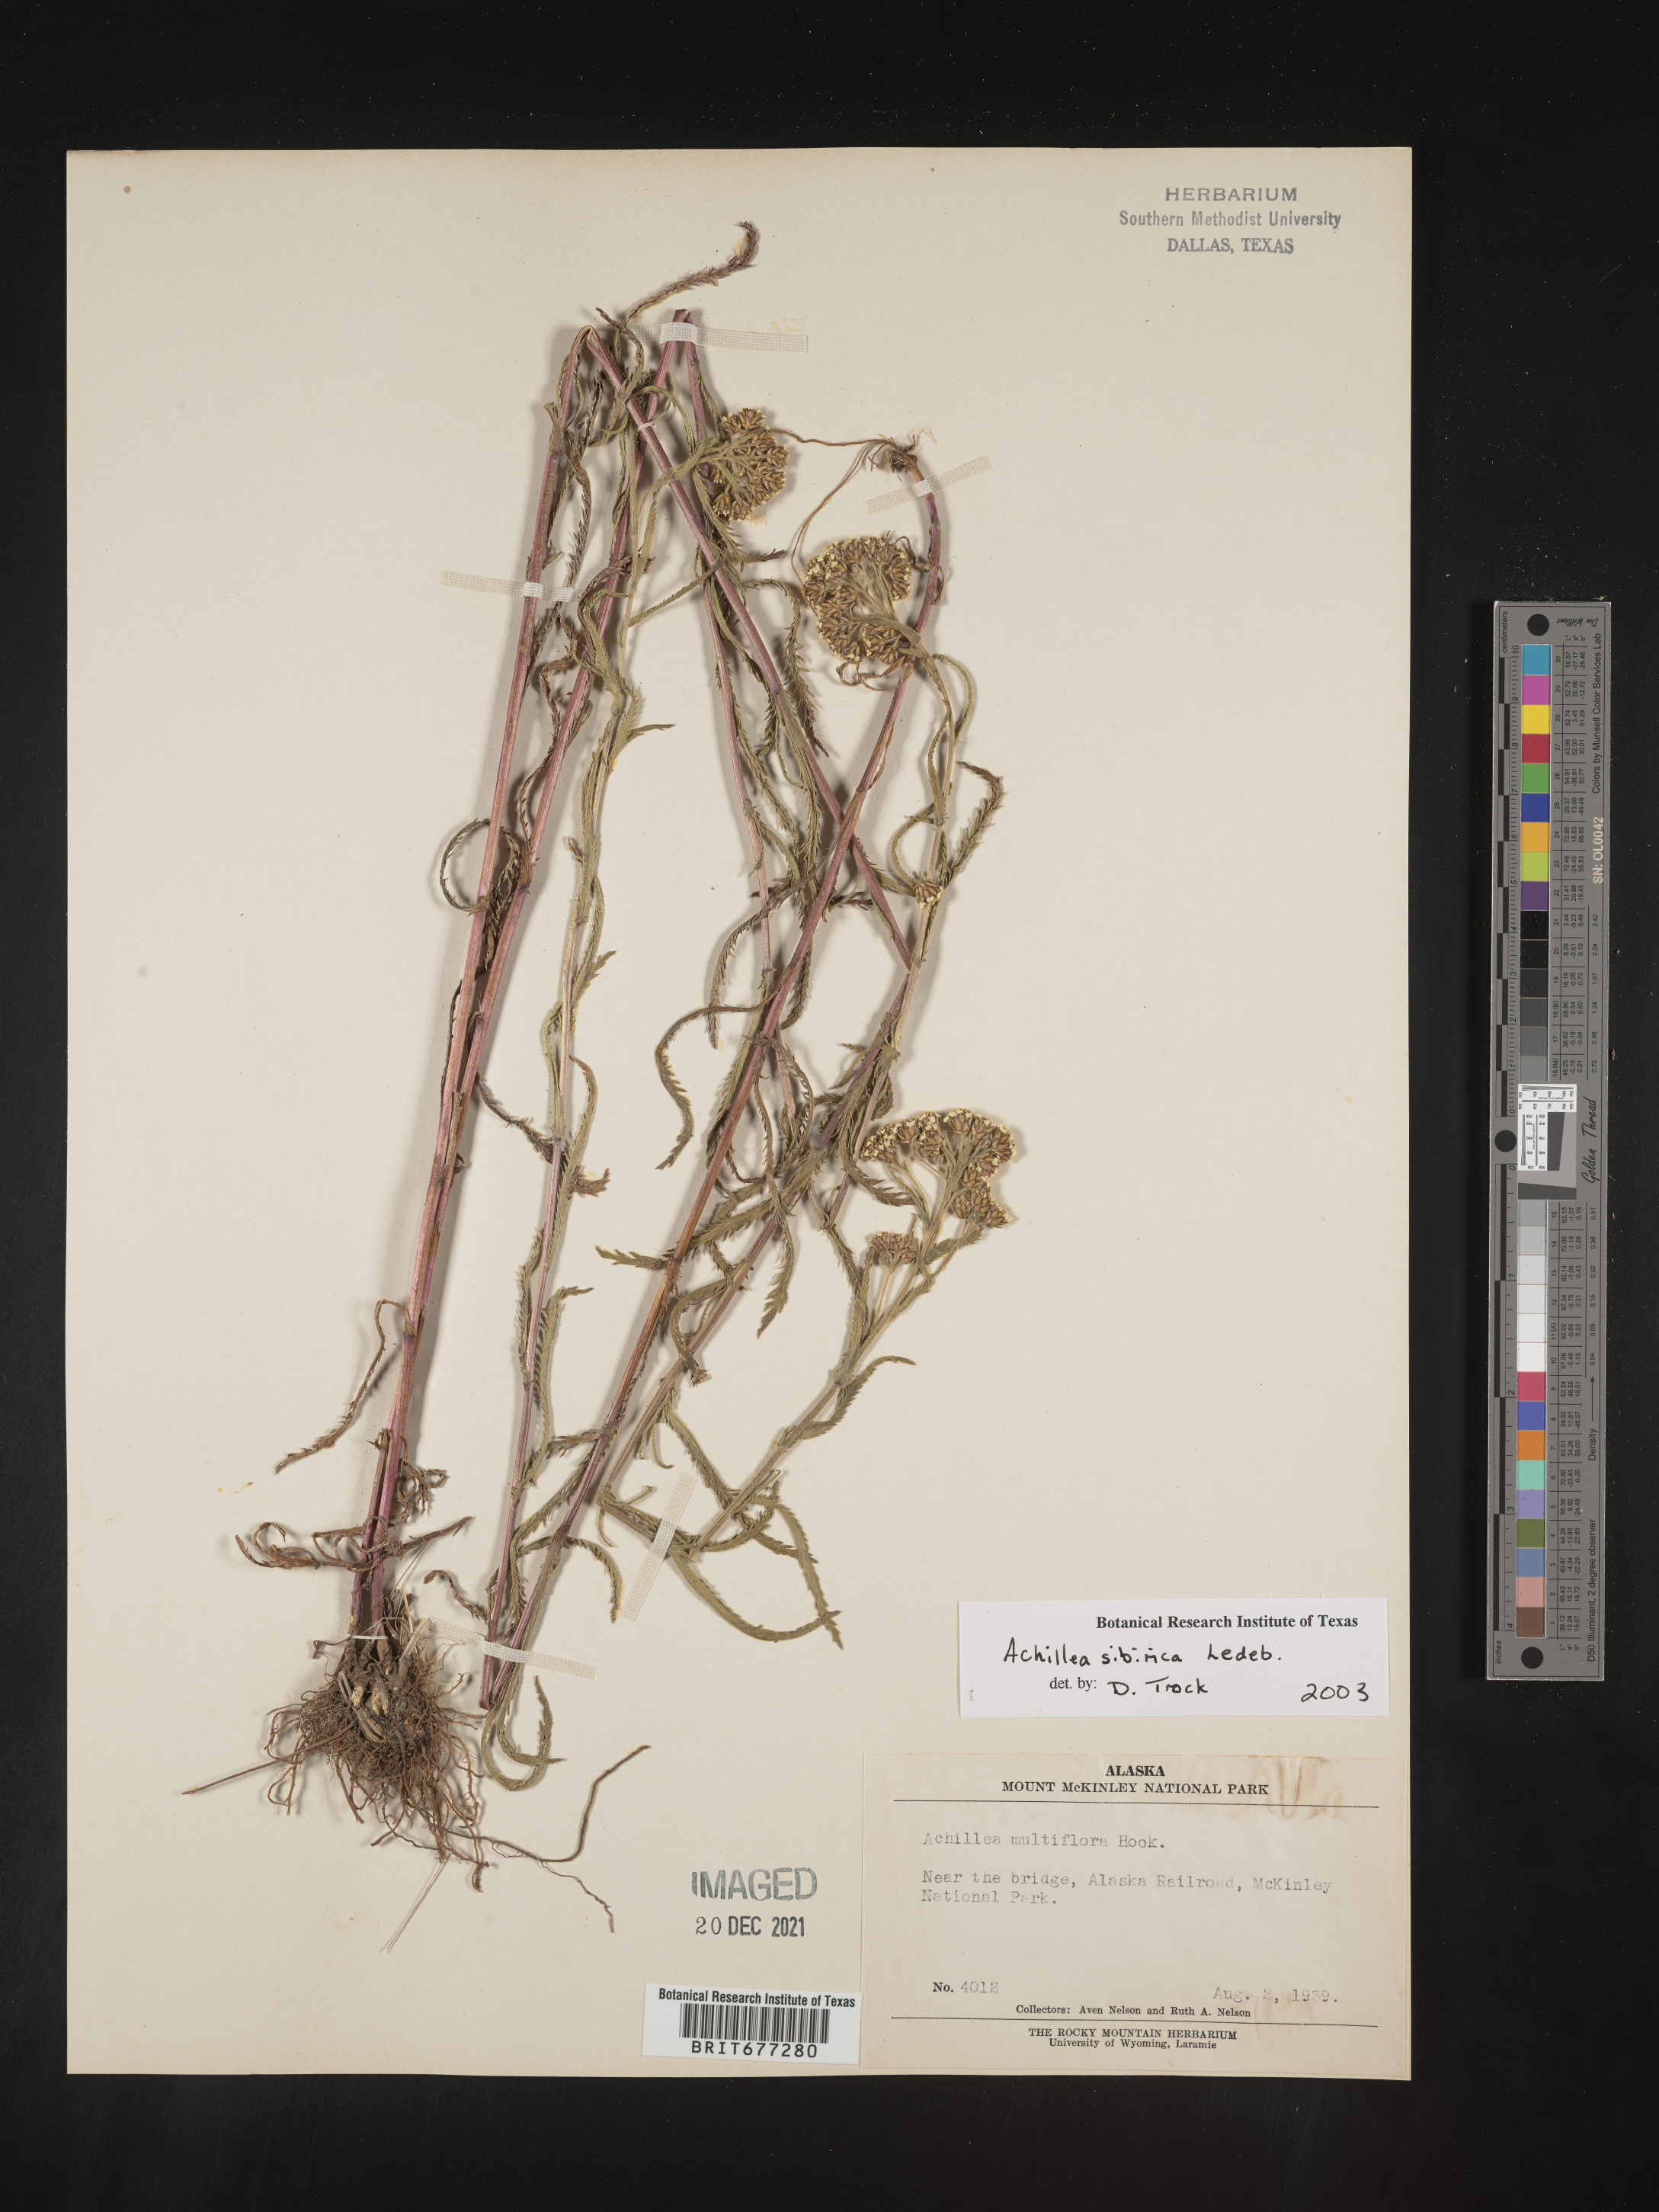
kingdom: Plantae
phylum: Tracheophyta
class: Magnoliopsida
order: Asterales
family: Asteraceae
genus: Achillea
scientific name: Achillea
